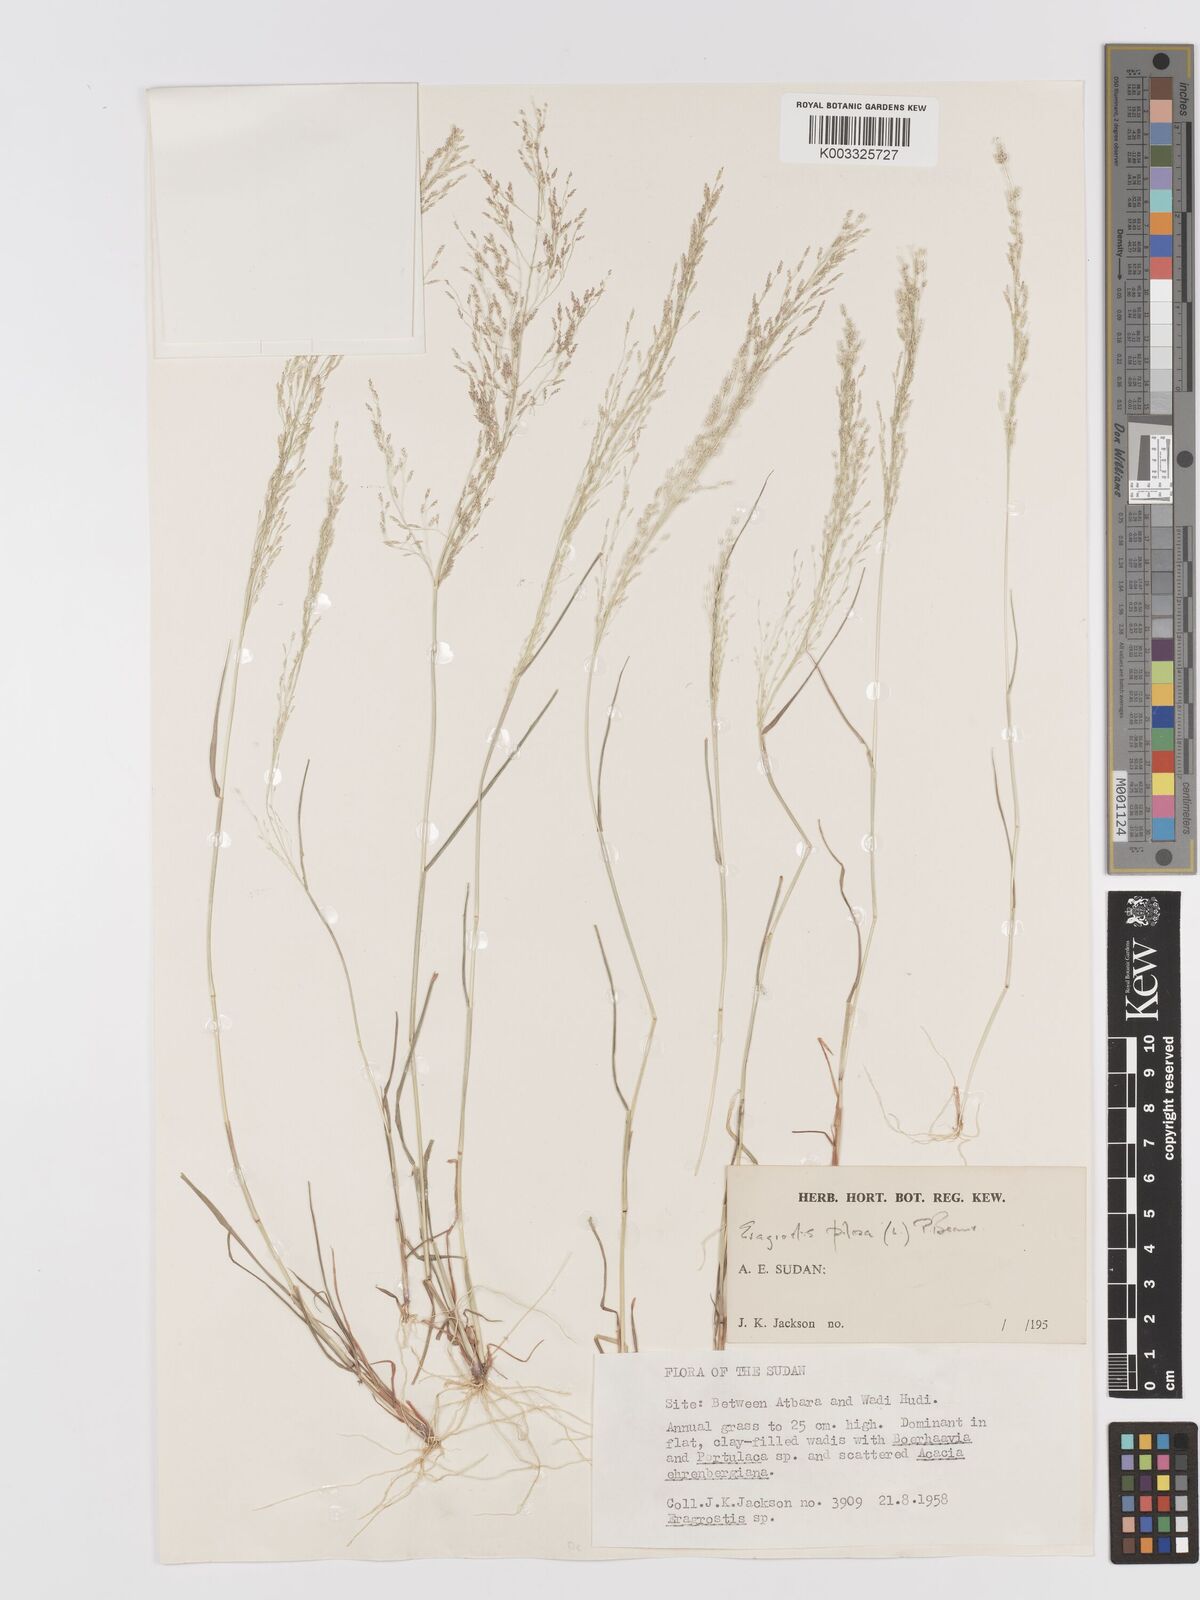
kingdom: Plantae
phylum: Tracheophyta
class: Liliopsida
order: Poales
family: Poaceae
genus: Eragrostis
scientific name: Eragrostis pilosa
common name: Indian lovegrass
